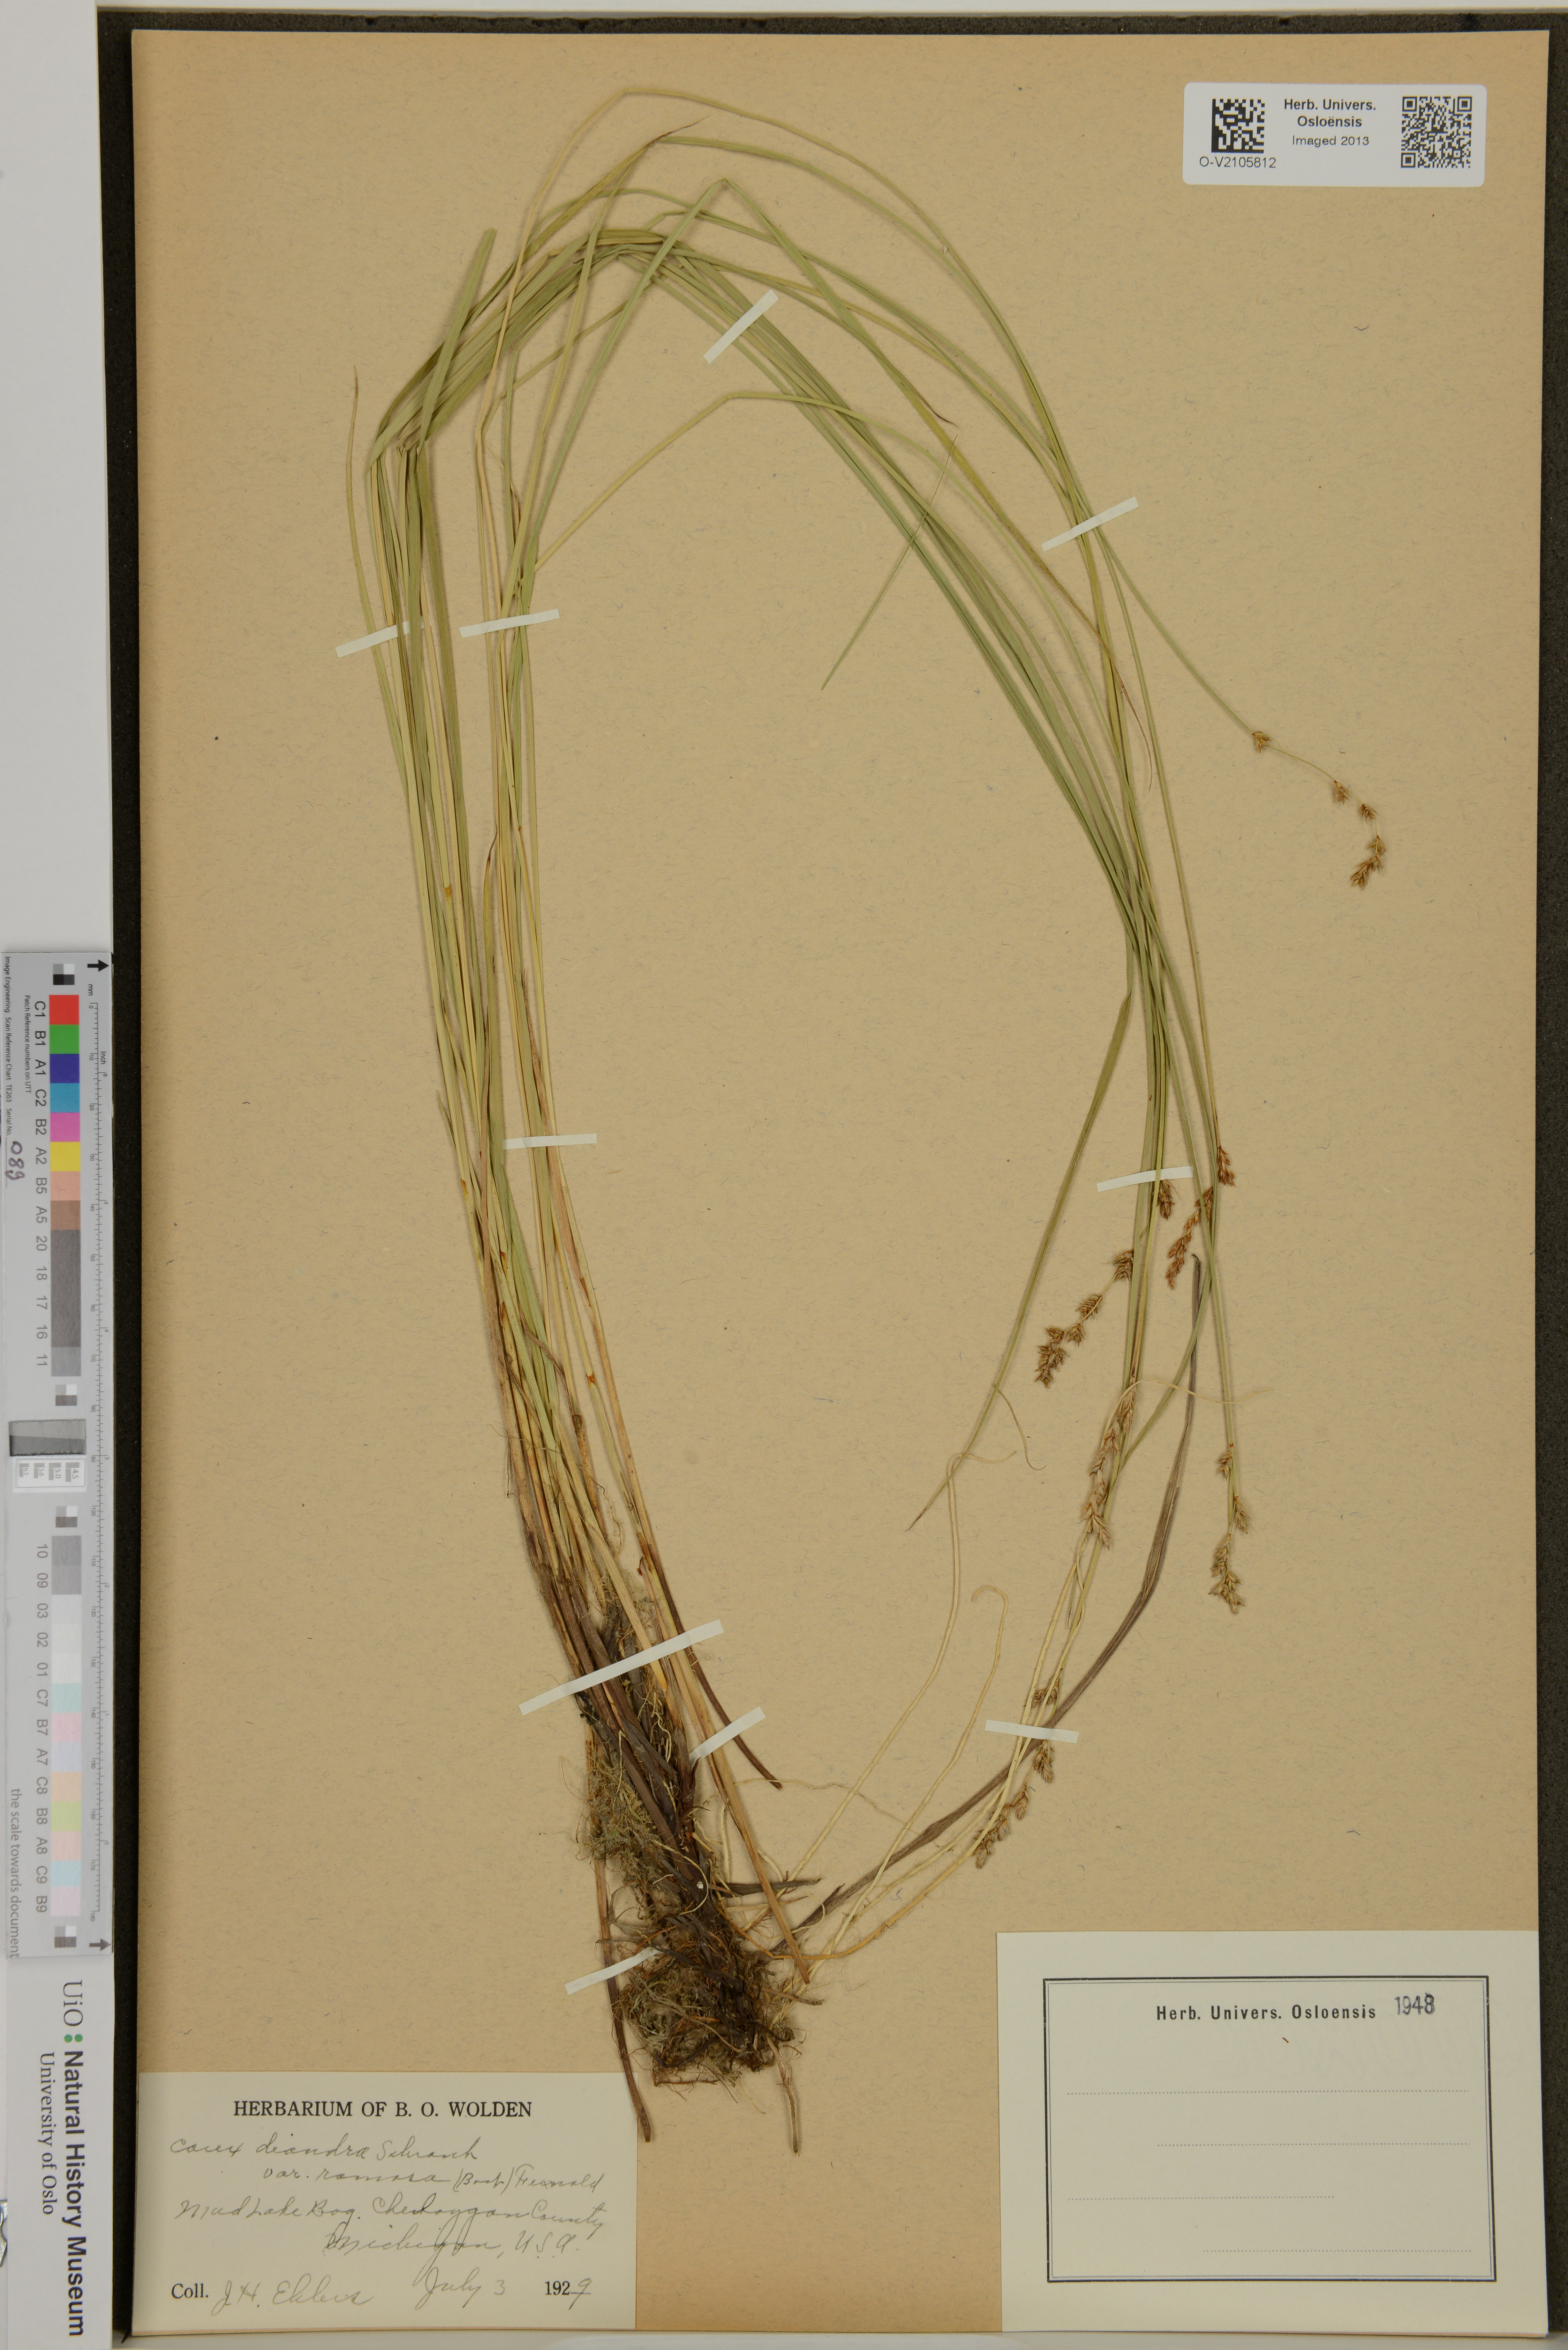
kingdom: Plantae
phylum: Tracheophyta
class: Liliopsida
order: Poales
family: Cyperaceae
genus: Carex
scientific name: Carex diandra
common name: Lesser tussock-sedge
